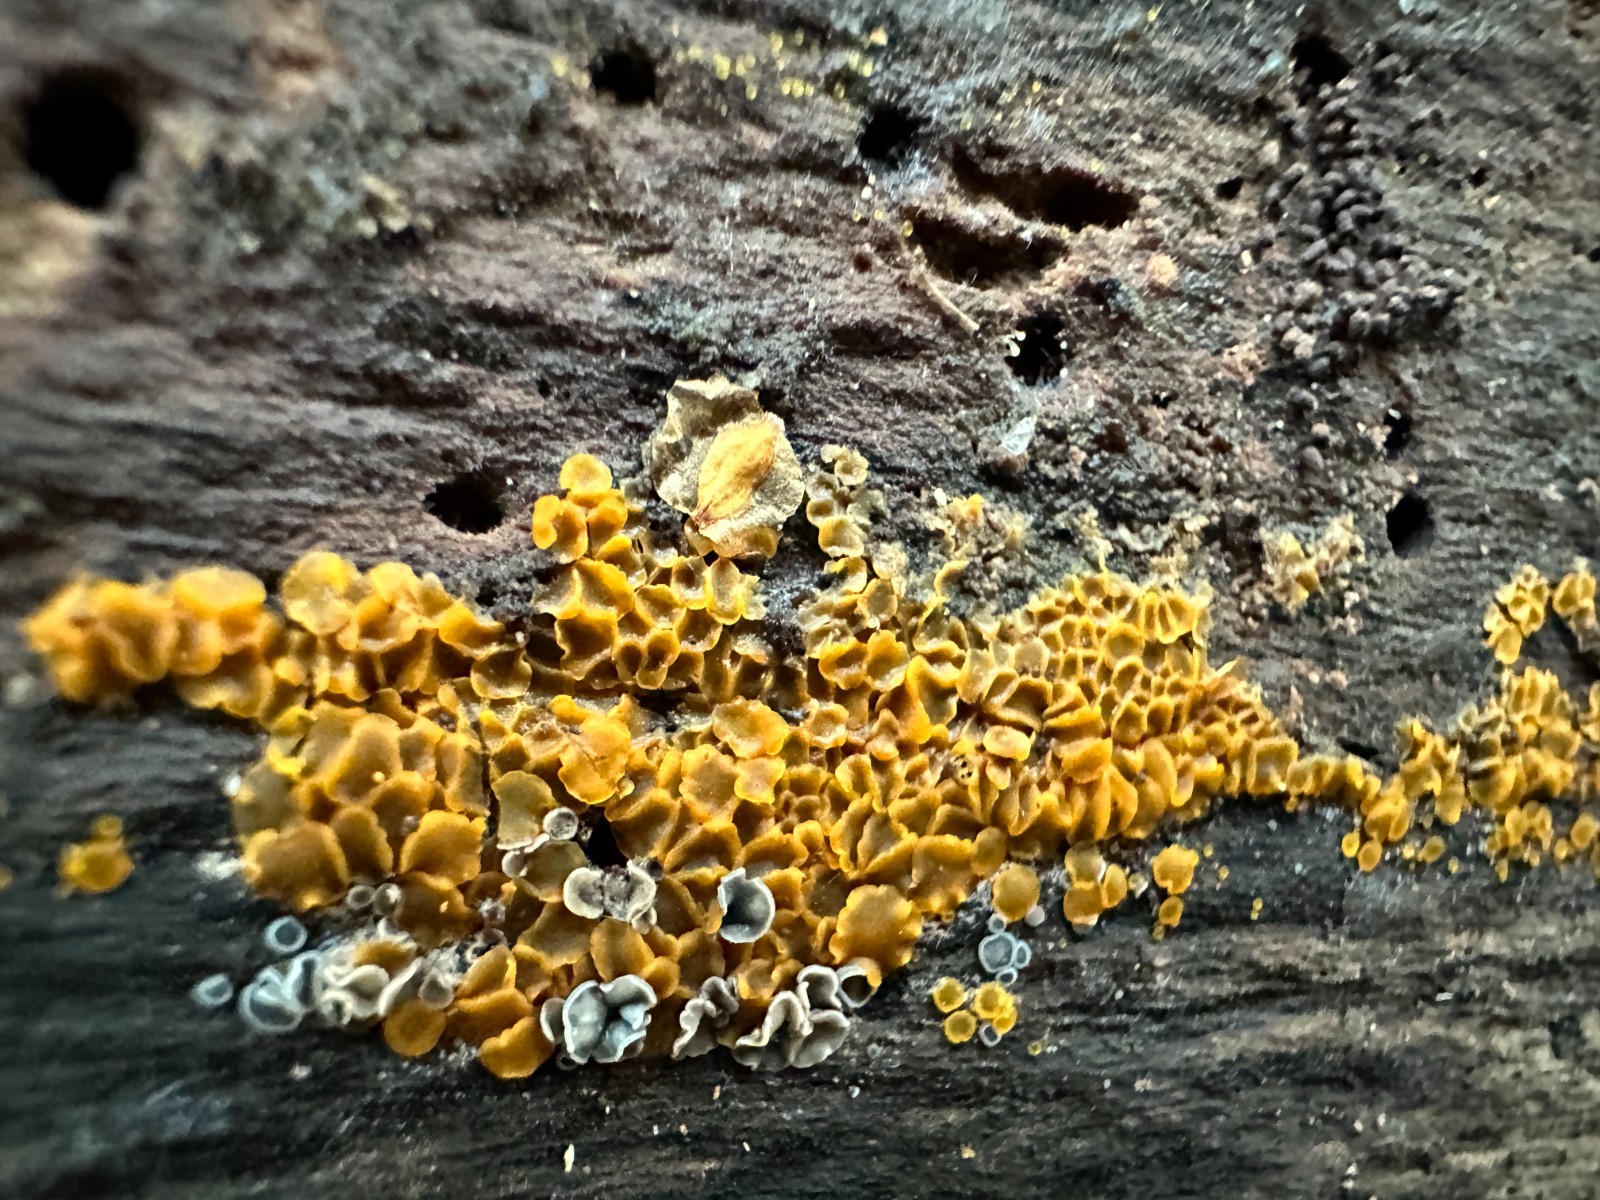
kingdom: Fungi
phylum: Ascomycota
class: Orbiliomycetes
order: Orbiliales
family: Orbiliaceae
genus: Orbilia
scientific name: Orbilia xanthostigma
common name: krumsporet voksskive
